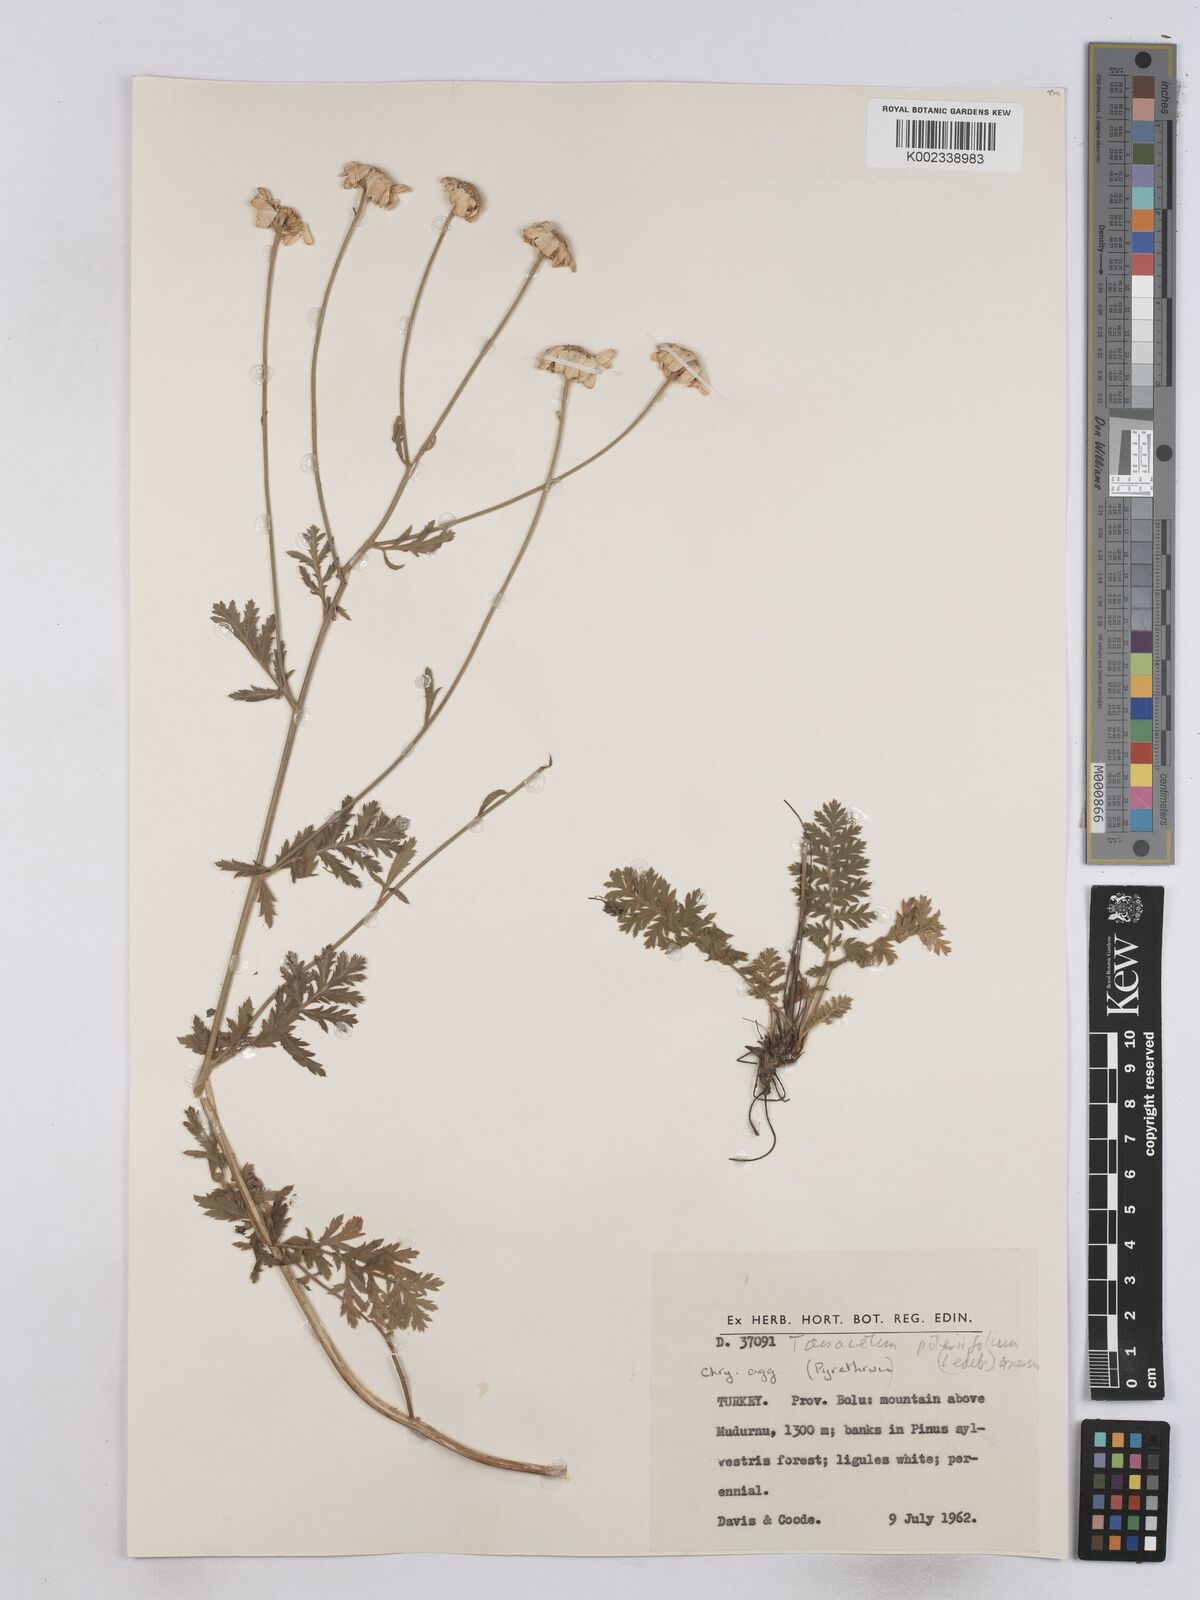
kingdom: Plantae
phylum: Tracheophyta
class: Magnoliopsida
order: Asterales
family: Asteraceae
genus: Tanacetum
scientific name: Tanacetum poteriifolium
